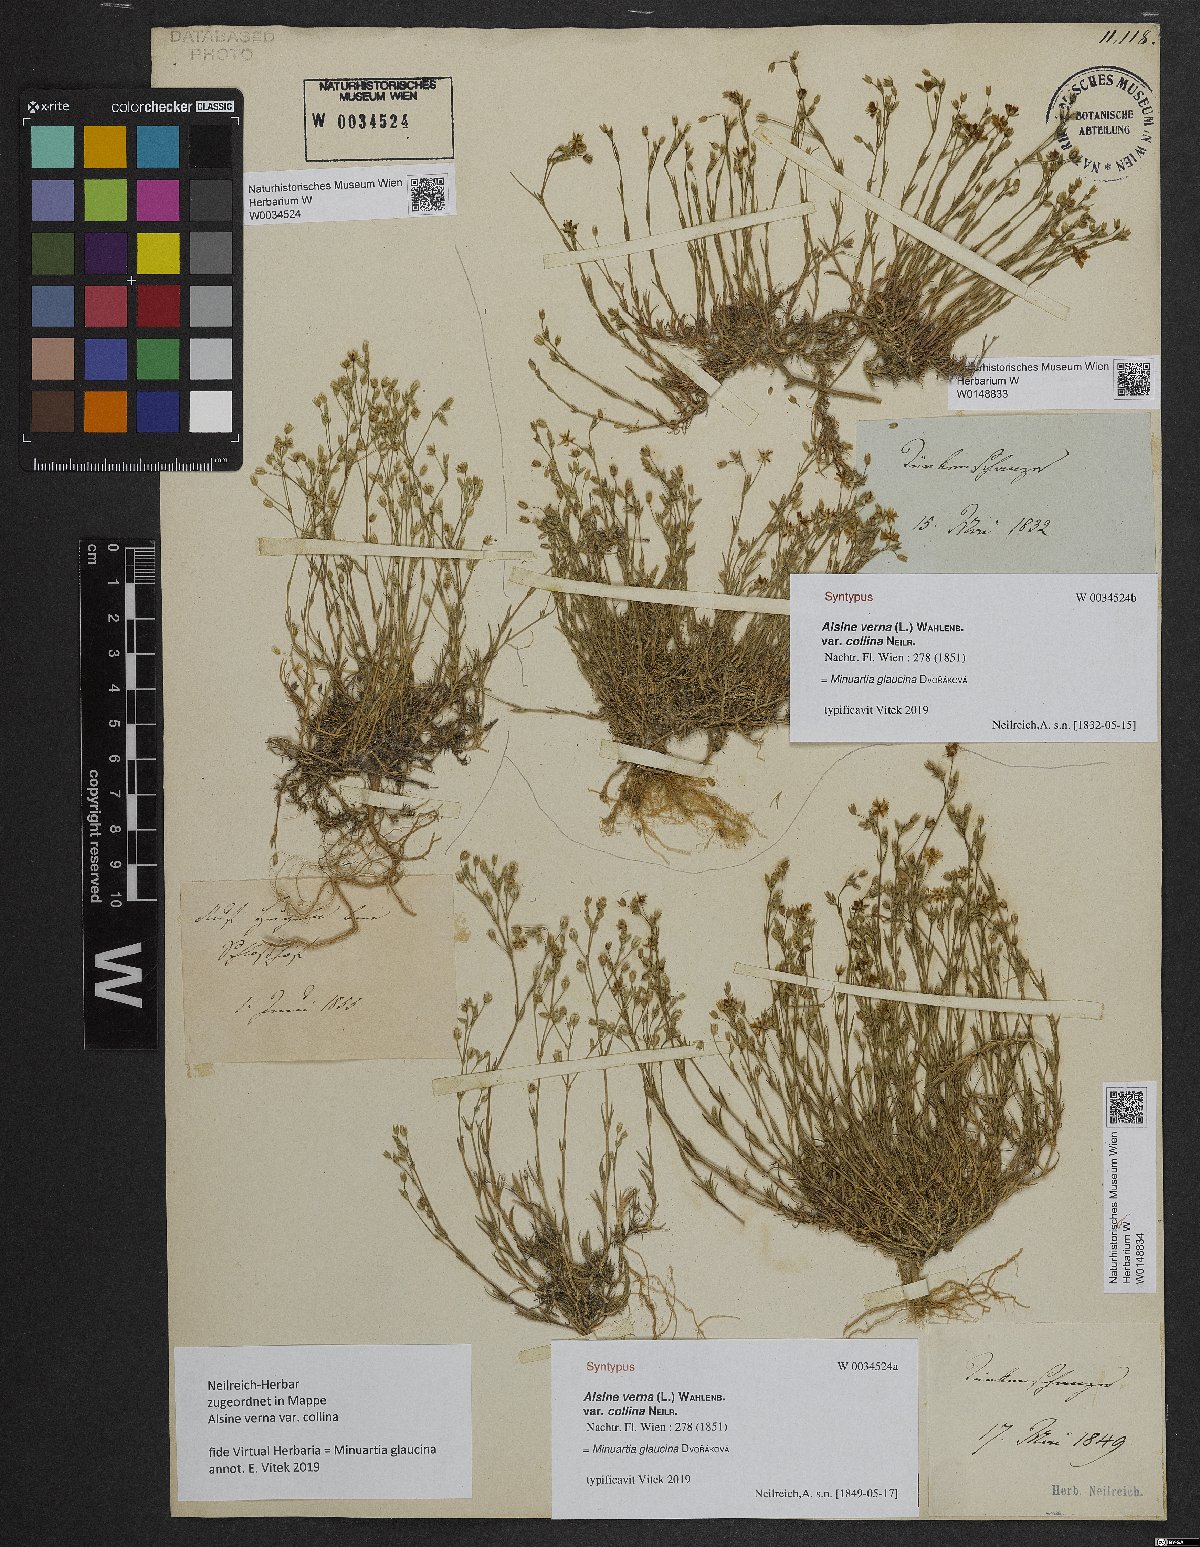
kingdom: Plantae
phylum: Tracheophyta
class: Magnoliopsida
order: Caryophyllales
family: Caryophyllaceae
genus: Sabulina
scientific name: Sabulina glaucina
